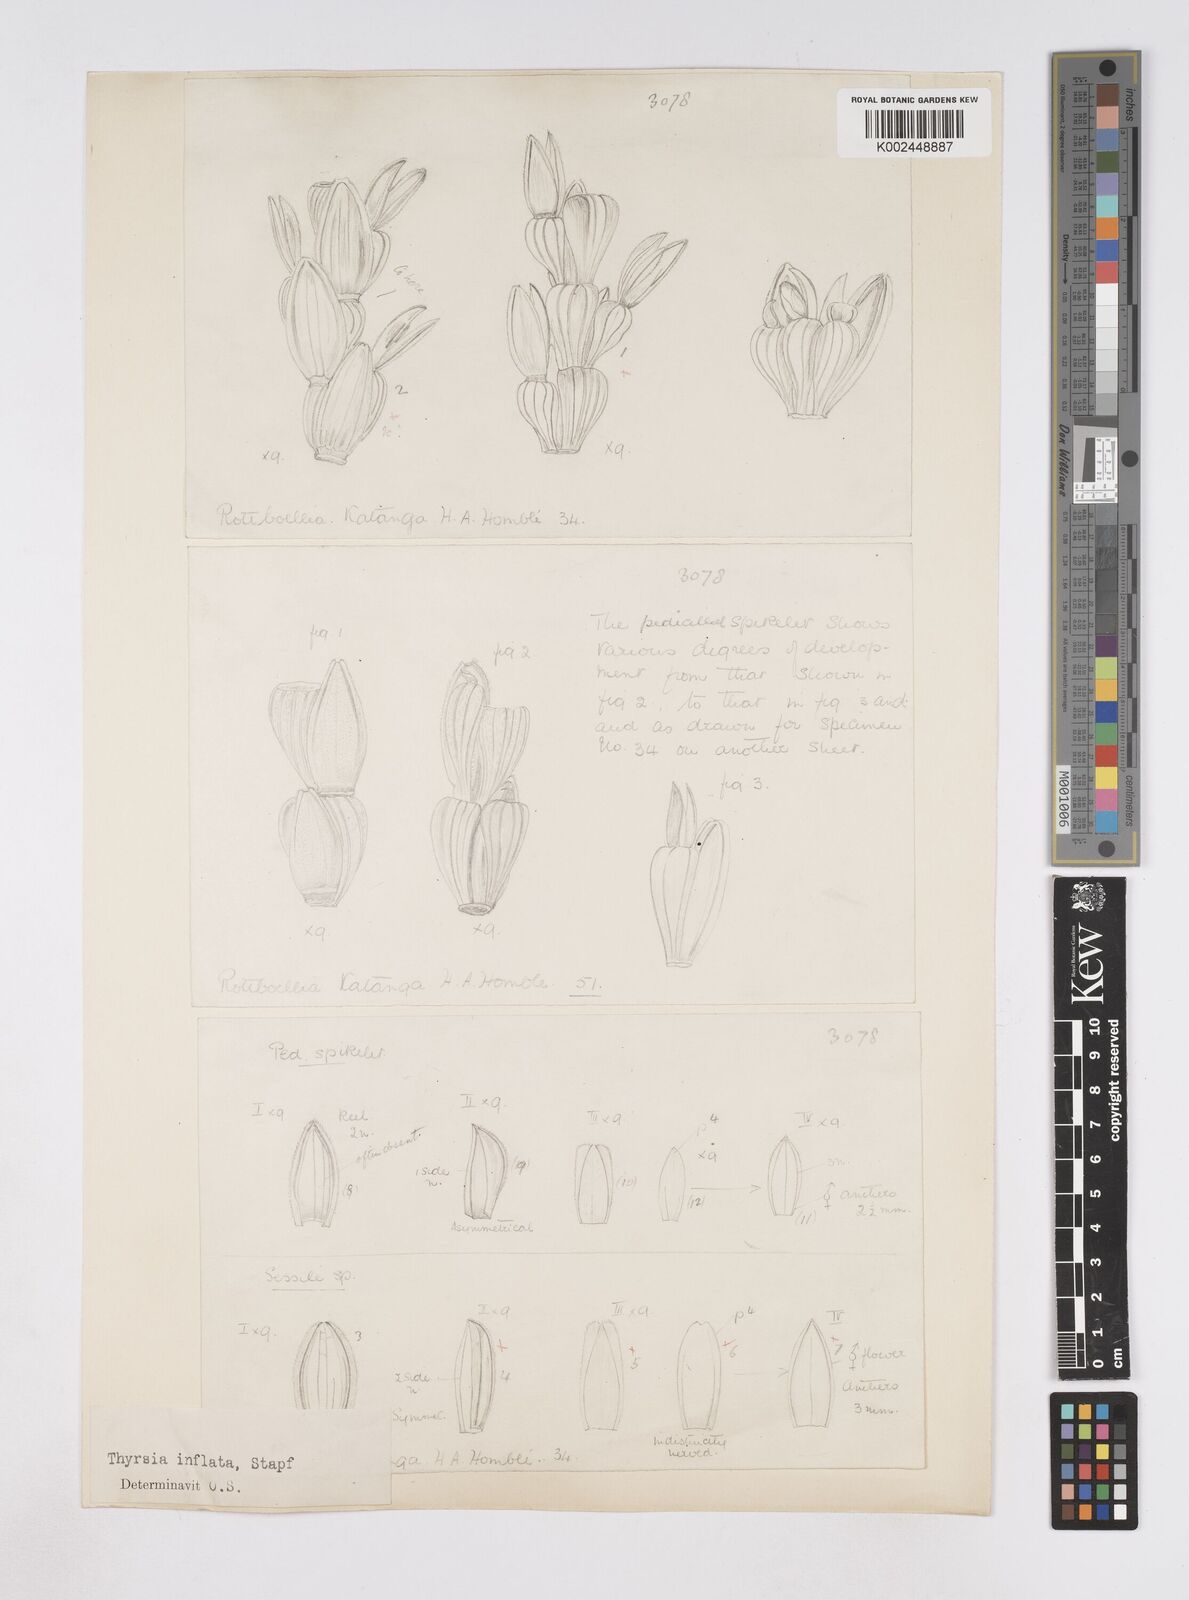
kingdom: Plantae
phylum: Tracheophyta
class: Liliopsida
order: Poales
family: Poaceae
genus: Thyrsia
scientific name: Thyrsia huillensis
